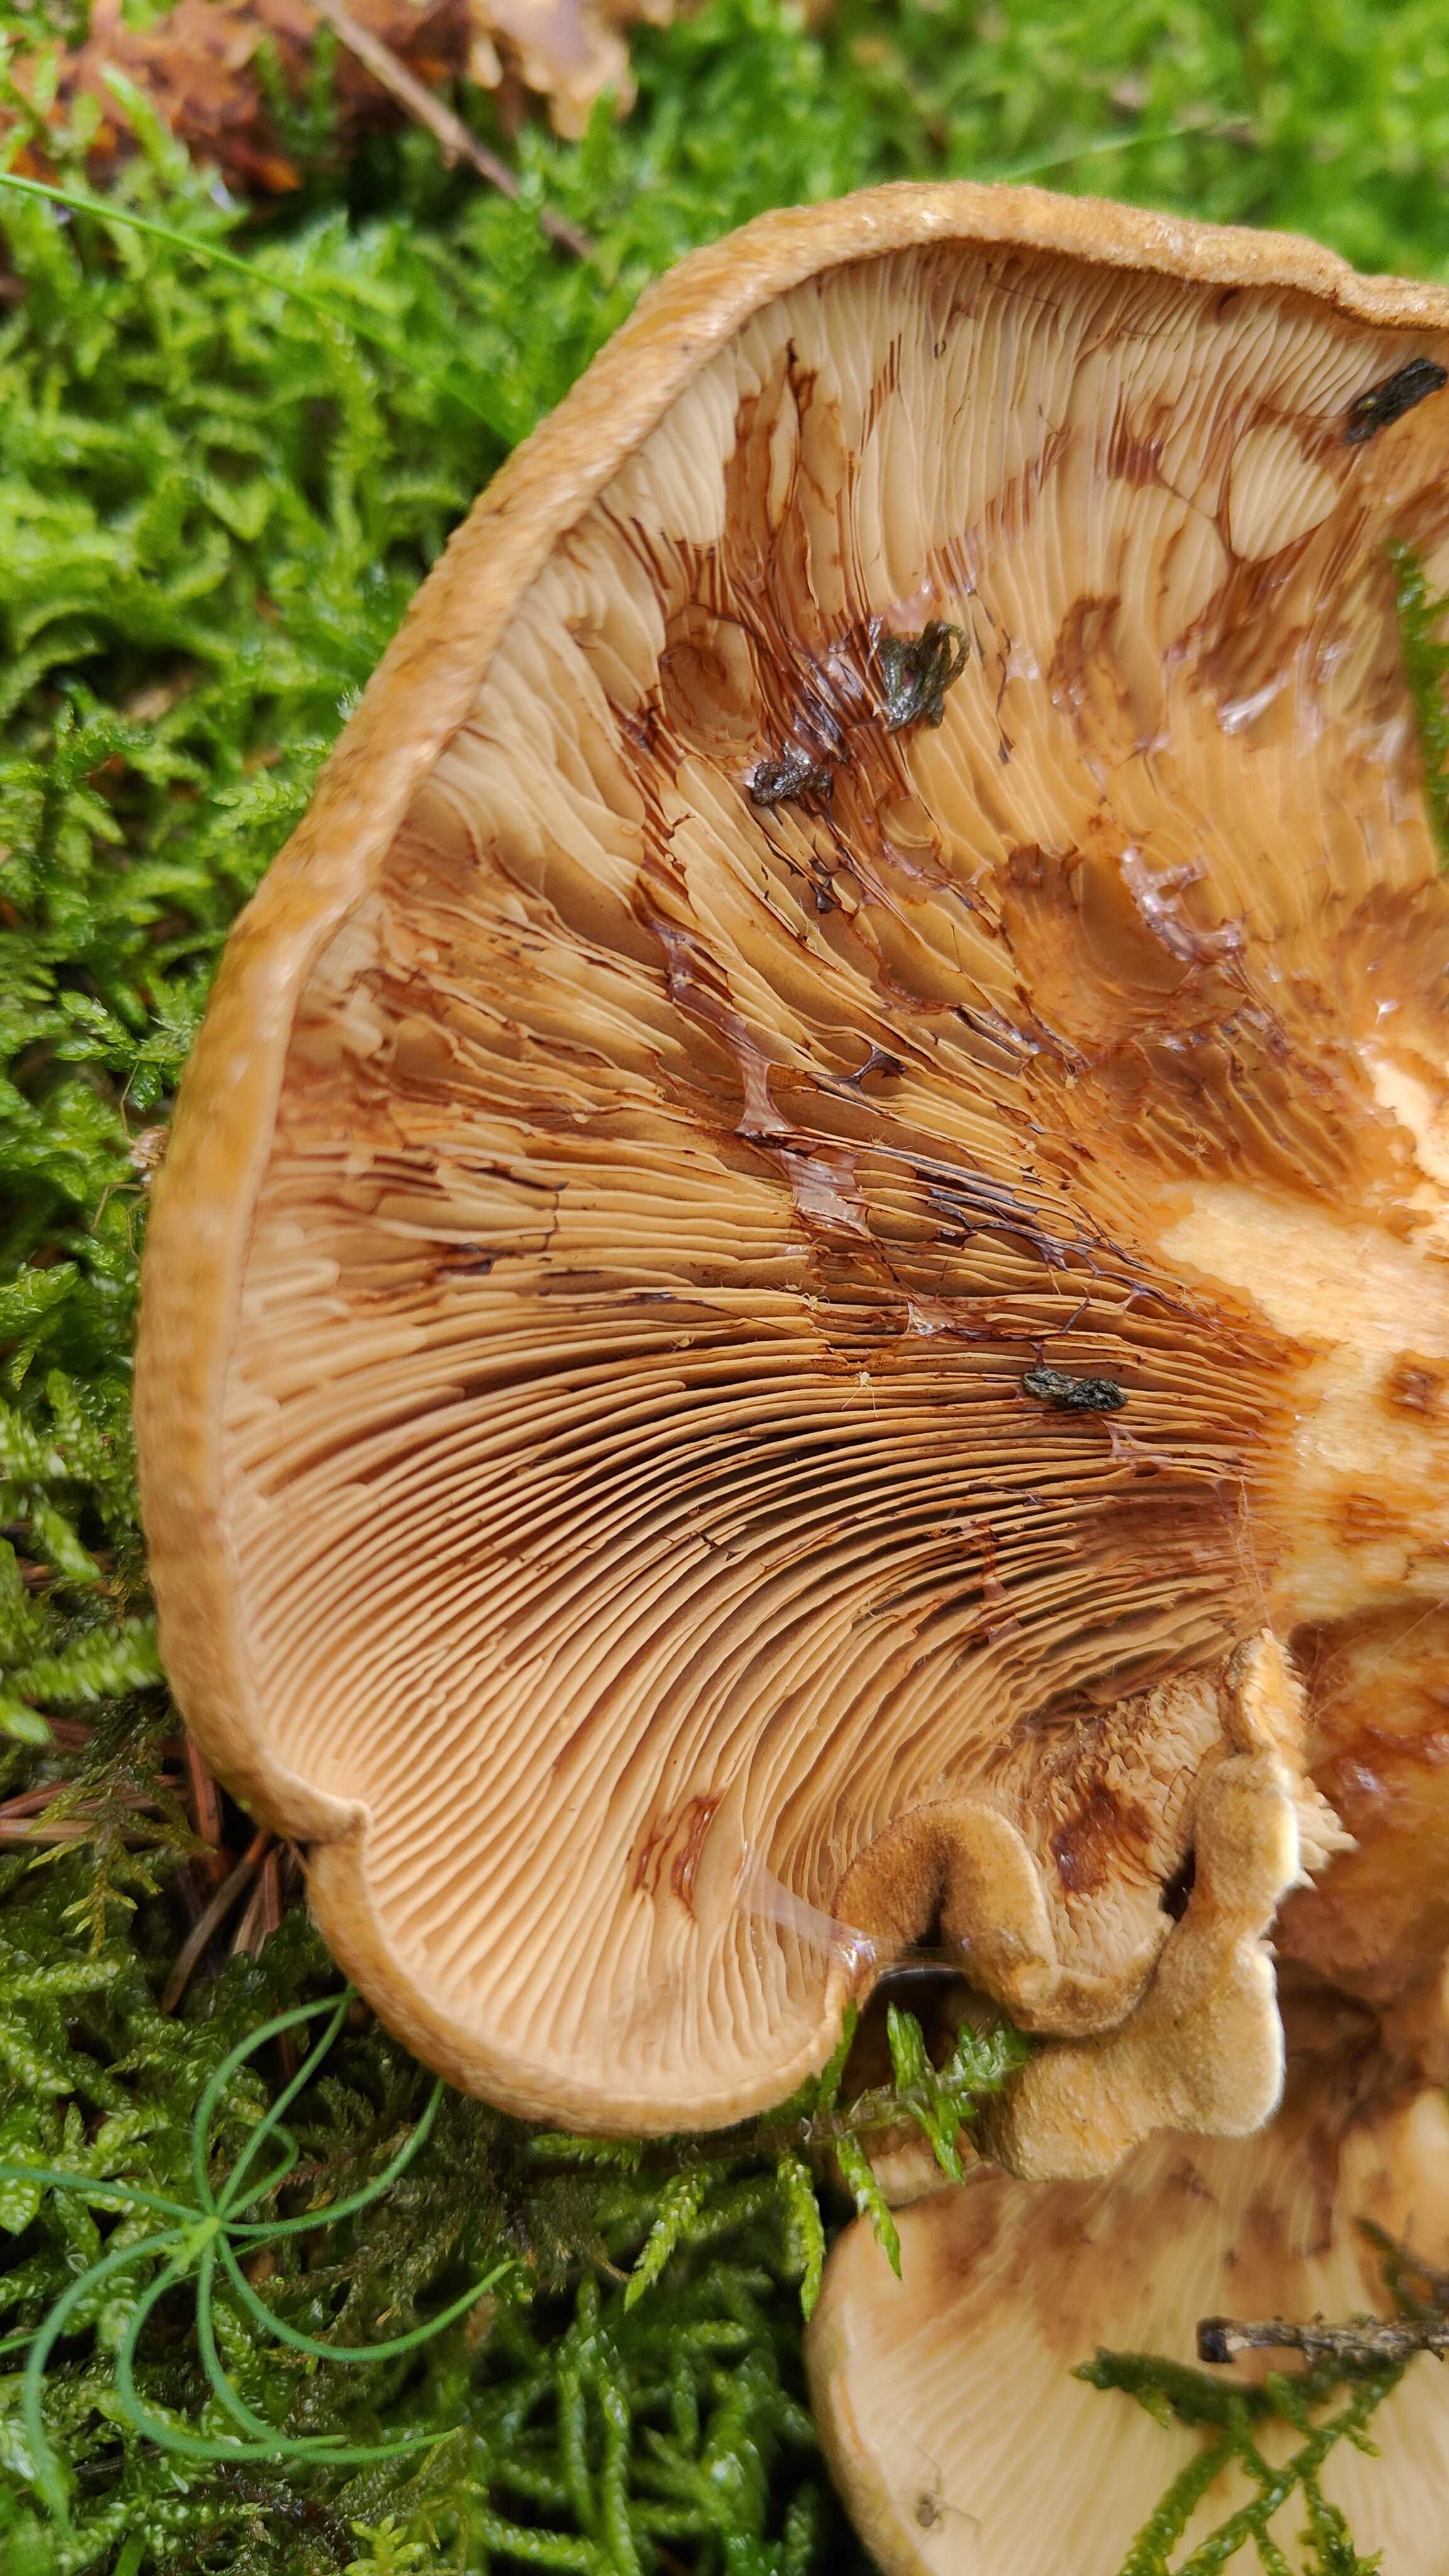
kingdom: Fungi
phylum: Basidiomycota
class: Agaricomycetes
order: Boletales
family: Paxillaceae
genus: Paxillus
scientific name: Paxillus involutus
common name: almindelig netbladhat
